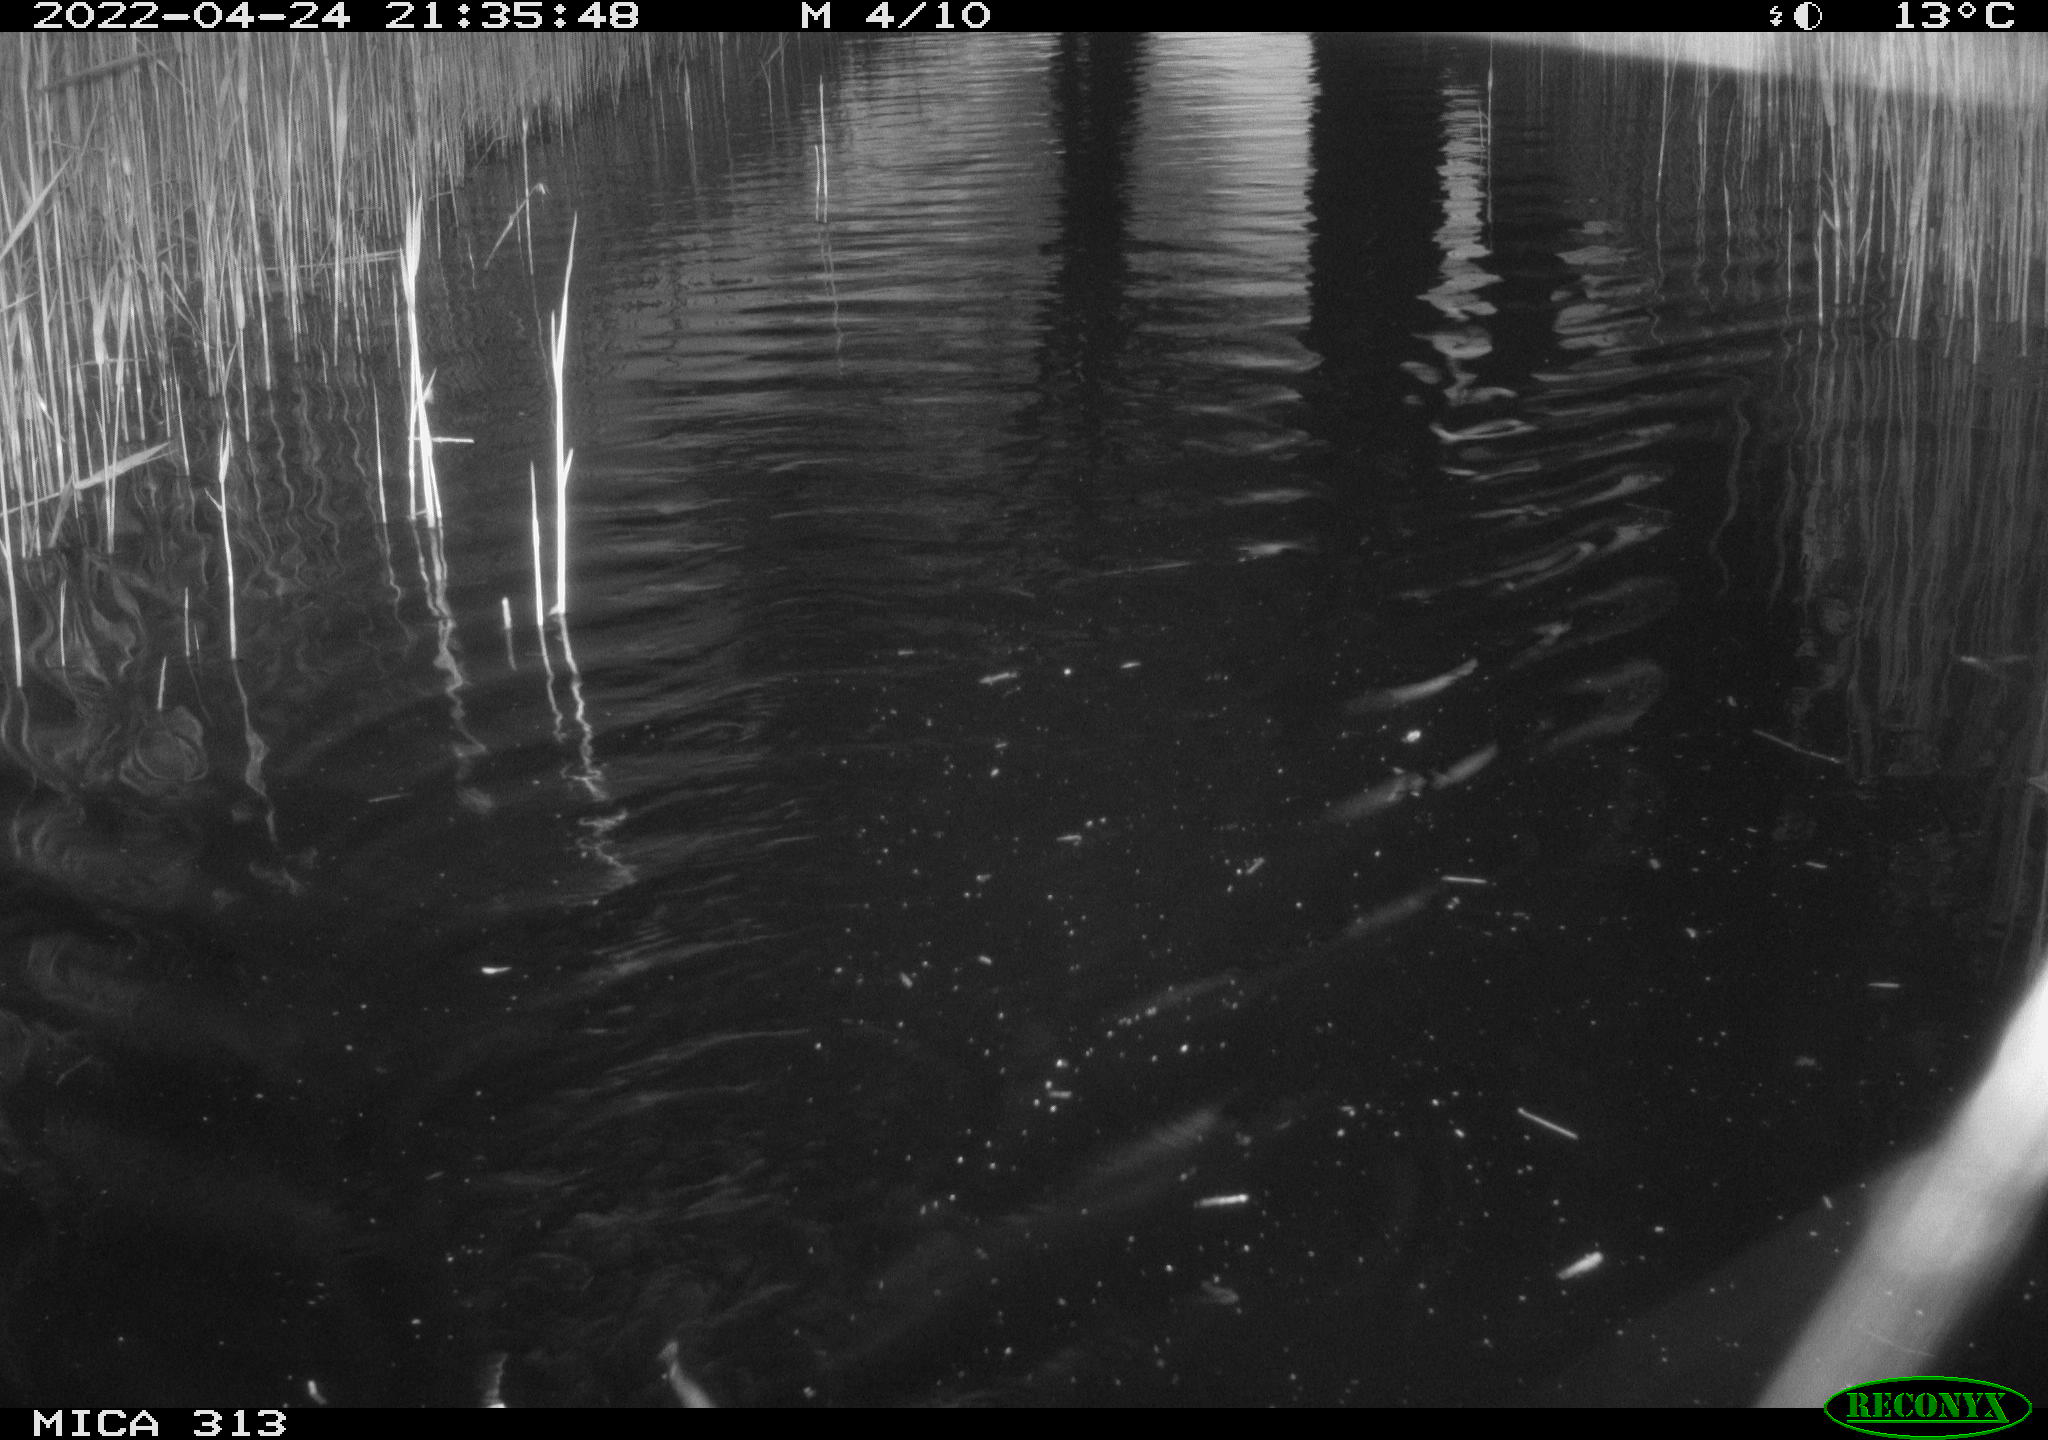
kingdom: Animalia
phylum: Chordata
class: Mammalia
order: Rodentia
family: Cricetidae
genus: Ondatra
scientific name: Ondatra zibethicus
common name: Muskrat
